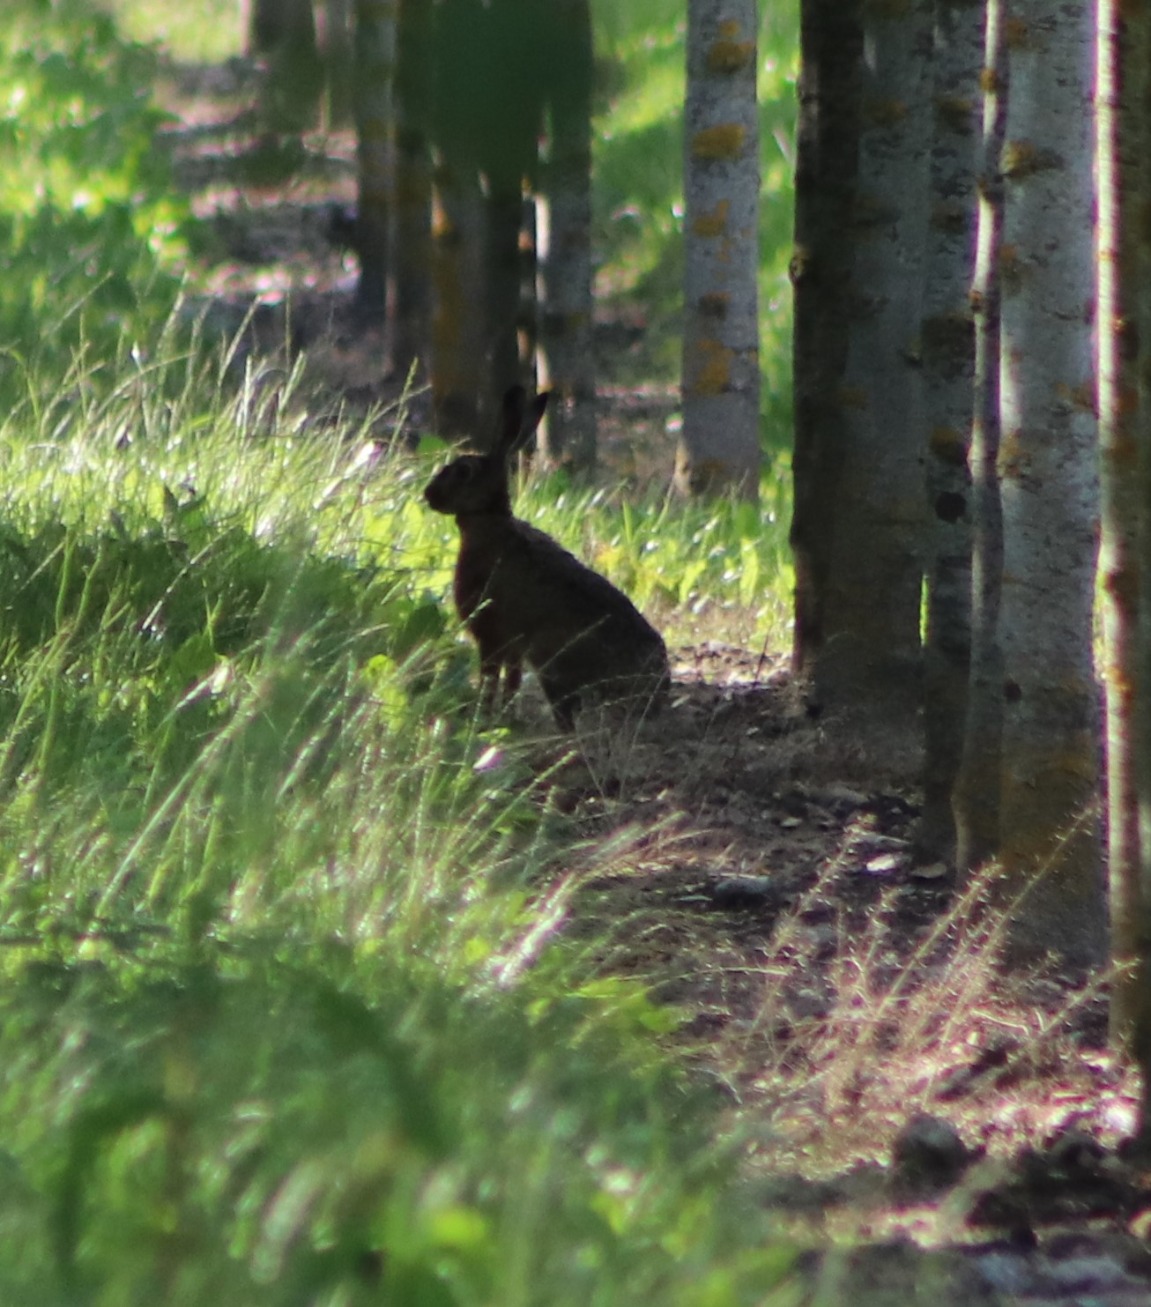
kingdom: Animalia
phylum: Chordata
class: Mammalia
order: Lagomorpha
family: Leporidae
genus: Lepus
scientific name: Lepus europaeus
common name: Hare
